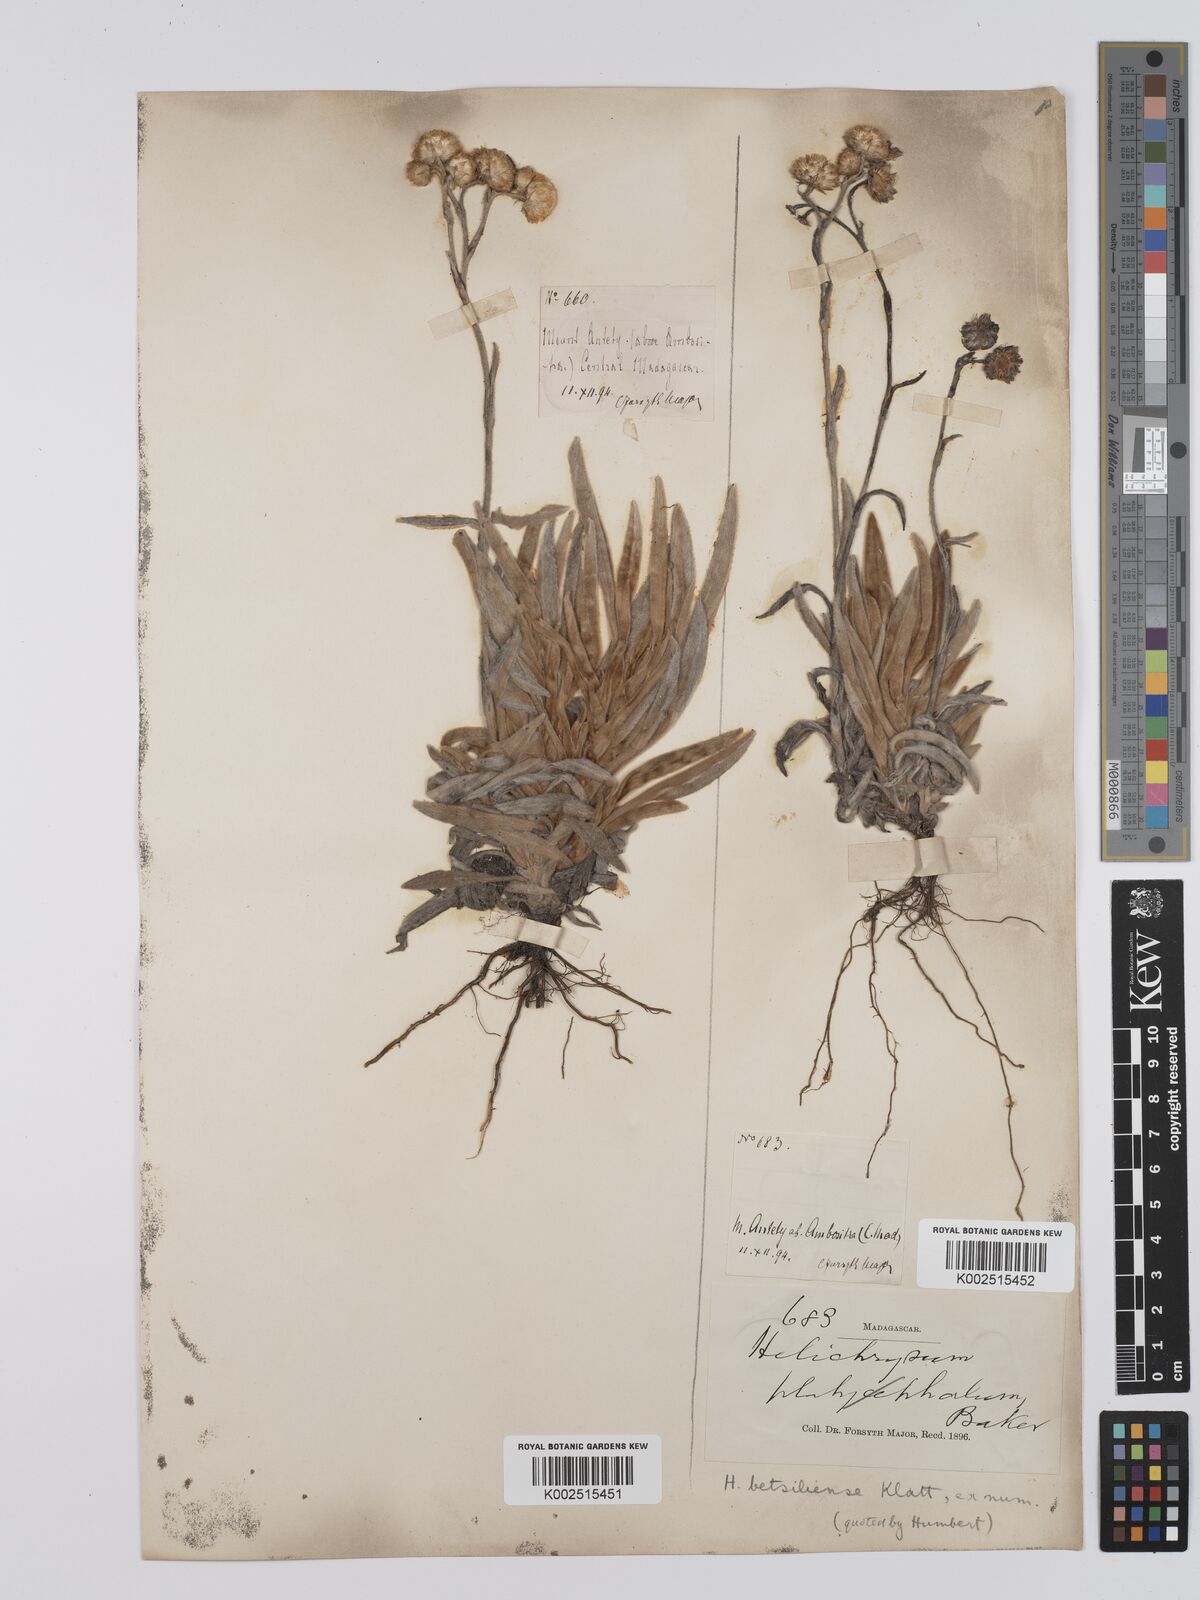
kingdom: Plantae
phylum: Tracheophyta
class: Magnoliopsida
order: Asterales
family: Asteraceae
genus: Helichrysum
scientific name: Helichrysum betsiliense
